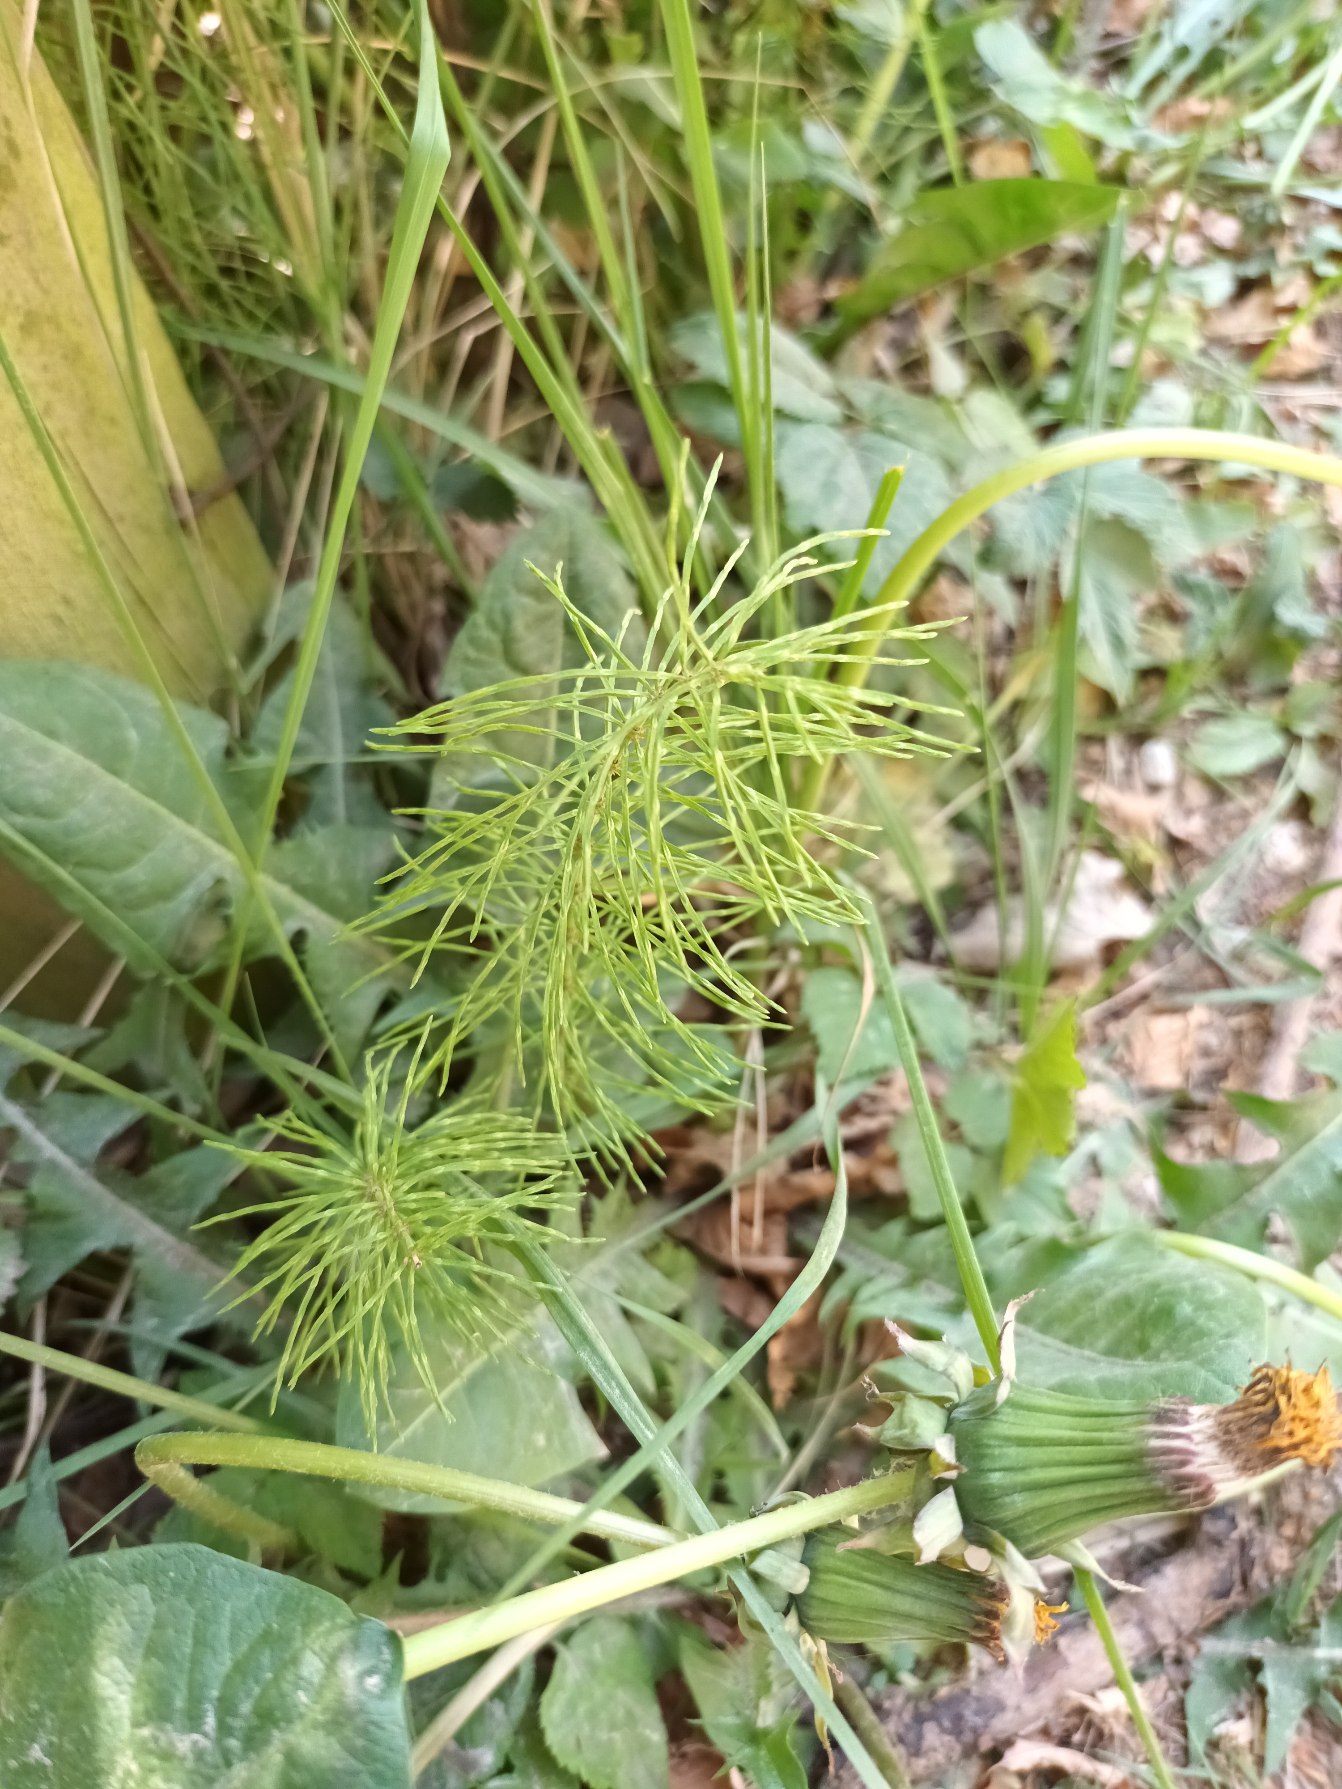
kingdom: Plantae
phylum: Tracheophyta
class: Polypodiopsida
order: Equisetales
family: Equisetaceae
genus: Equisetum
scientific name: Equisetum pratense
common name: Lund-padderok
